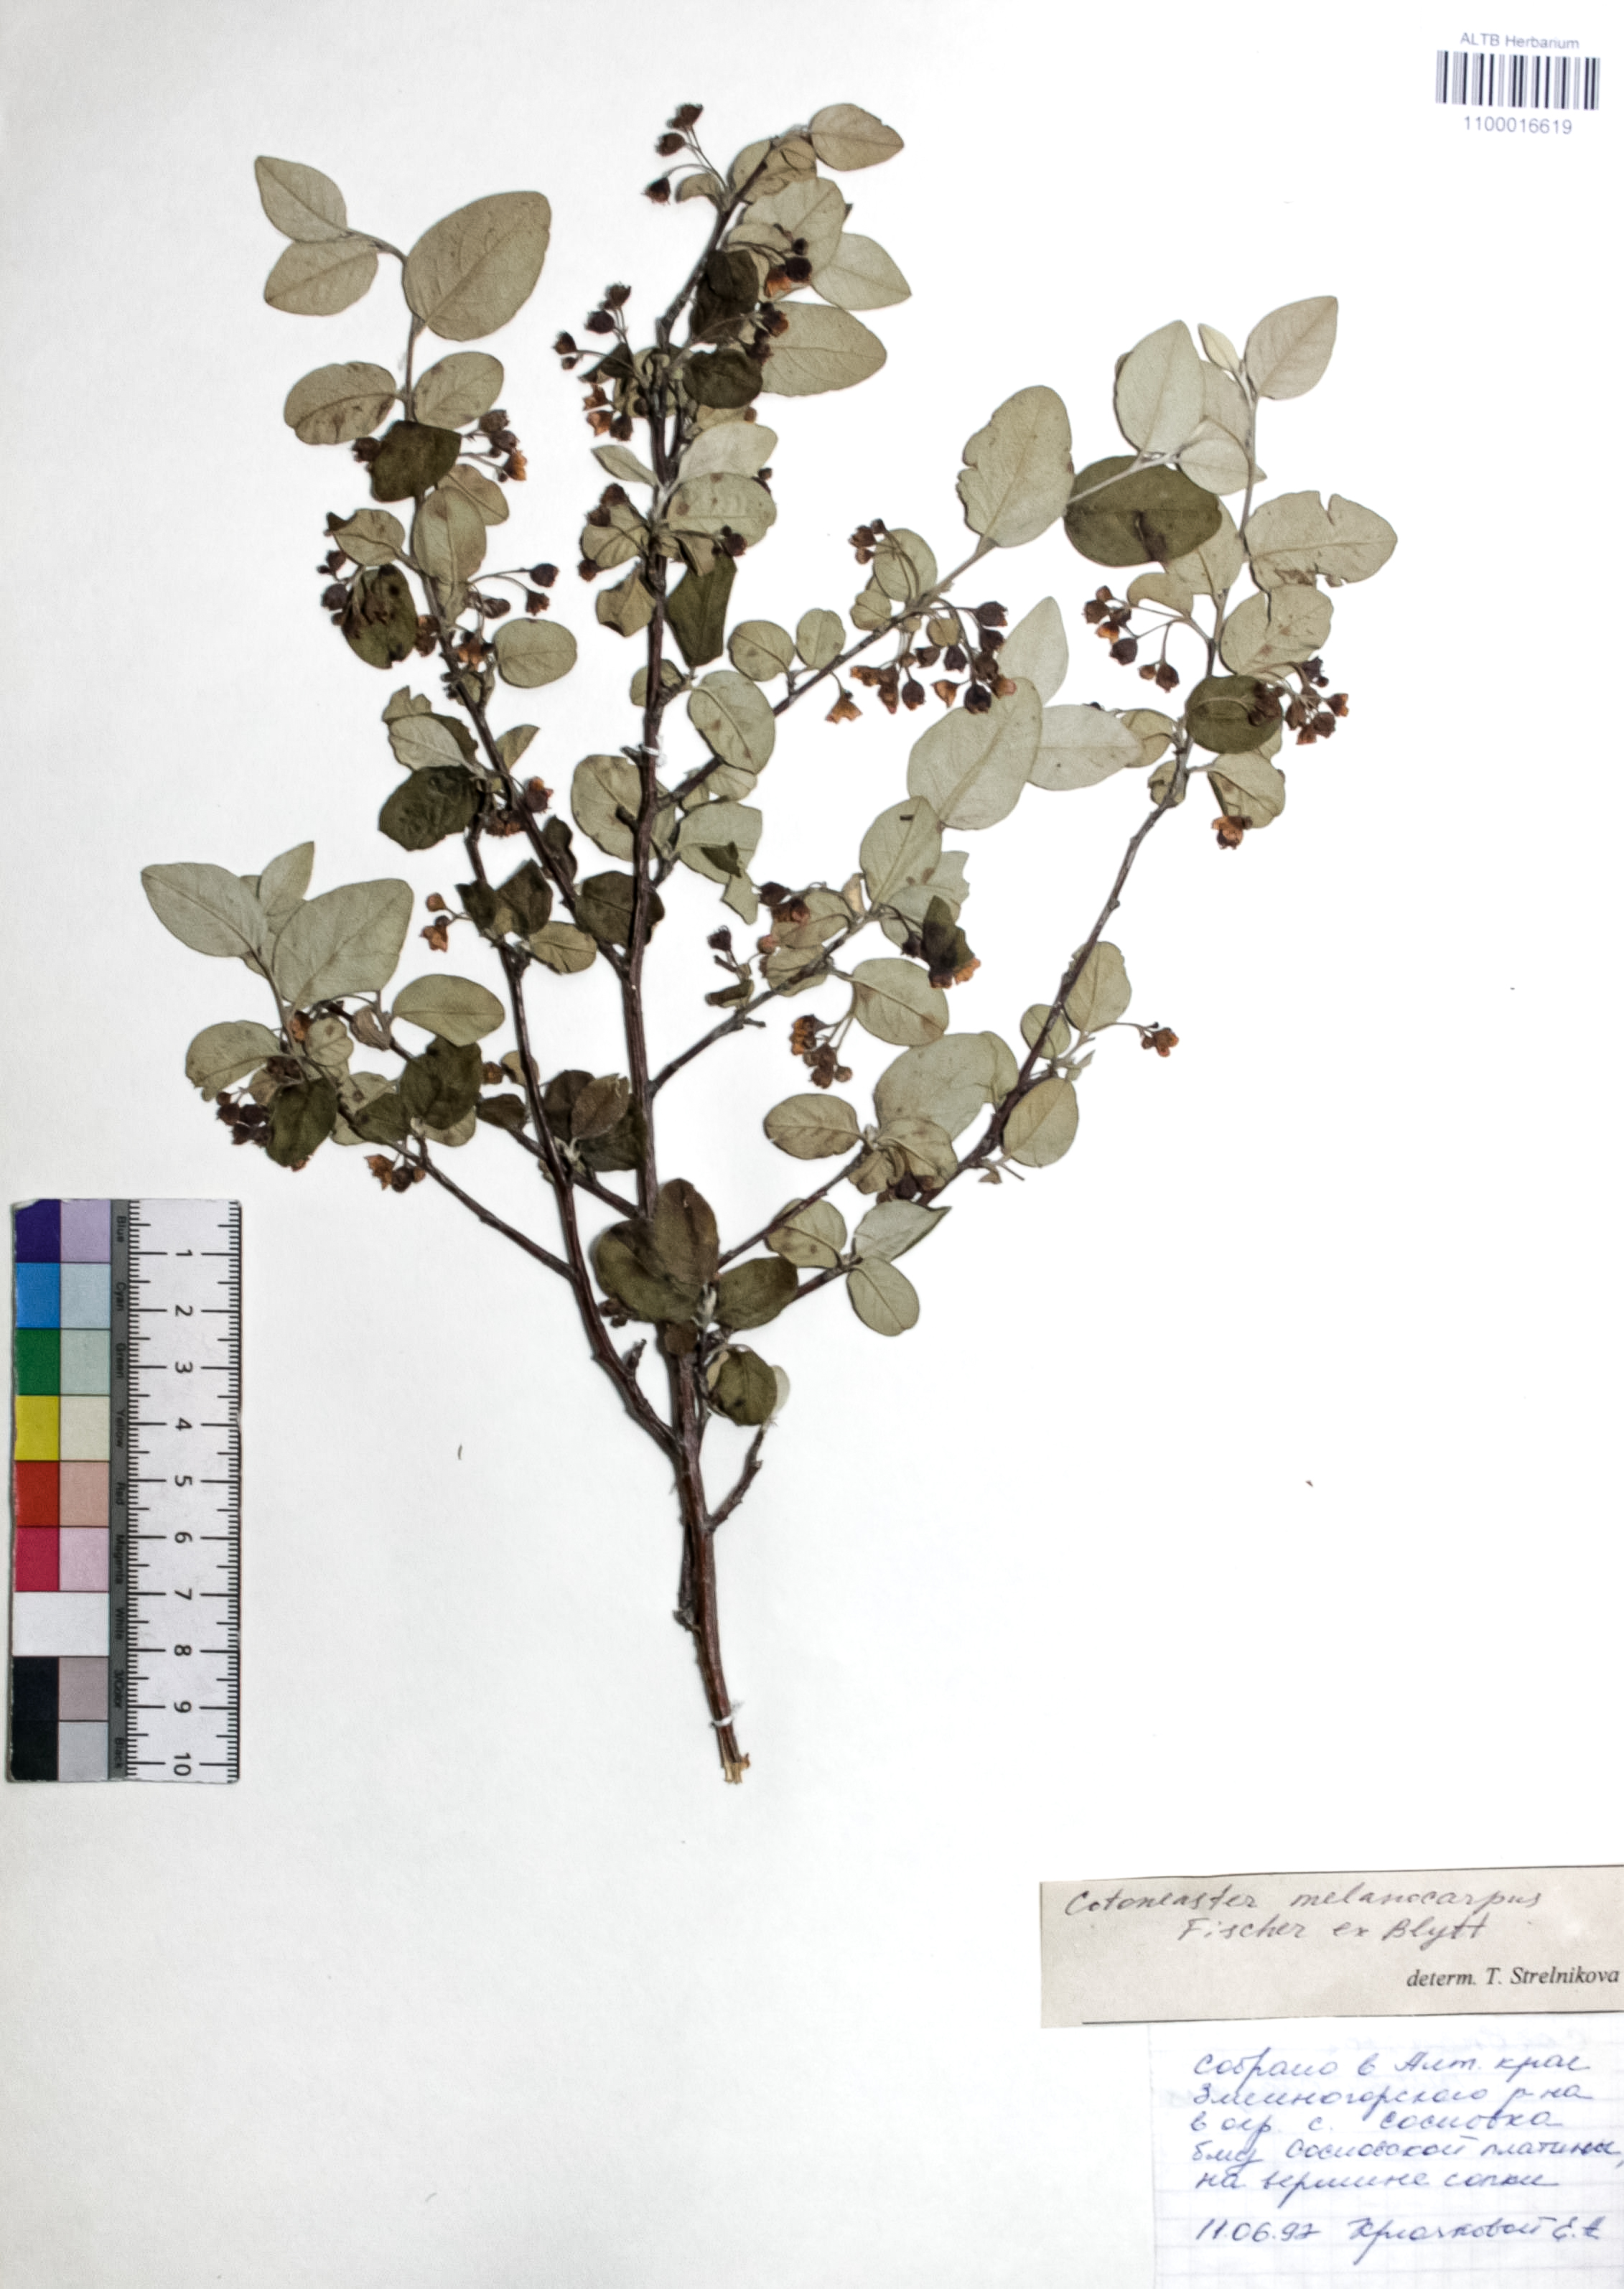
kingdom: Plantae
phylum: Tracheophyta
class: Magnoliopsida
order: Rosales
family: Rosaceae
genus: Cotoneaster
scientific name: Cotoneaster niger
